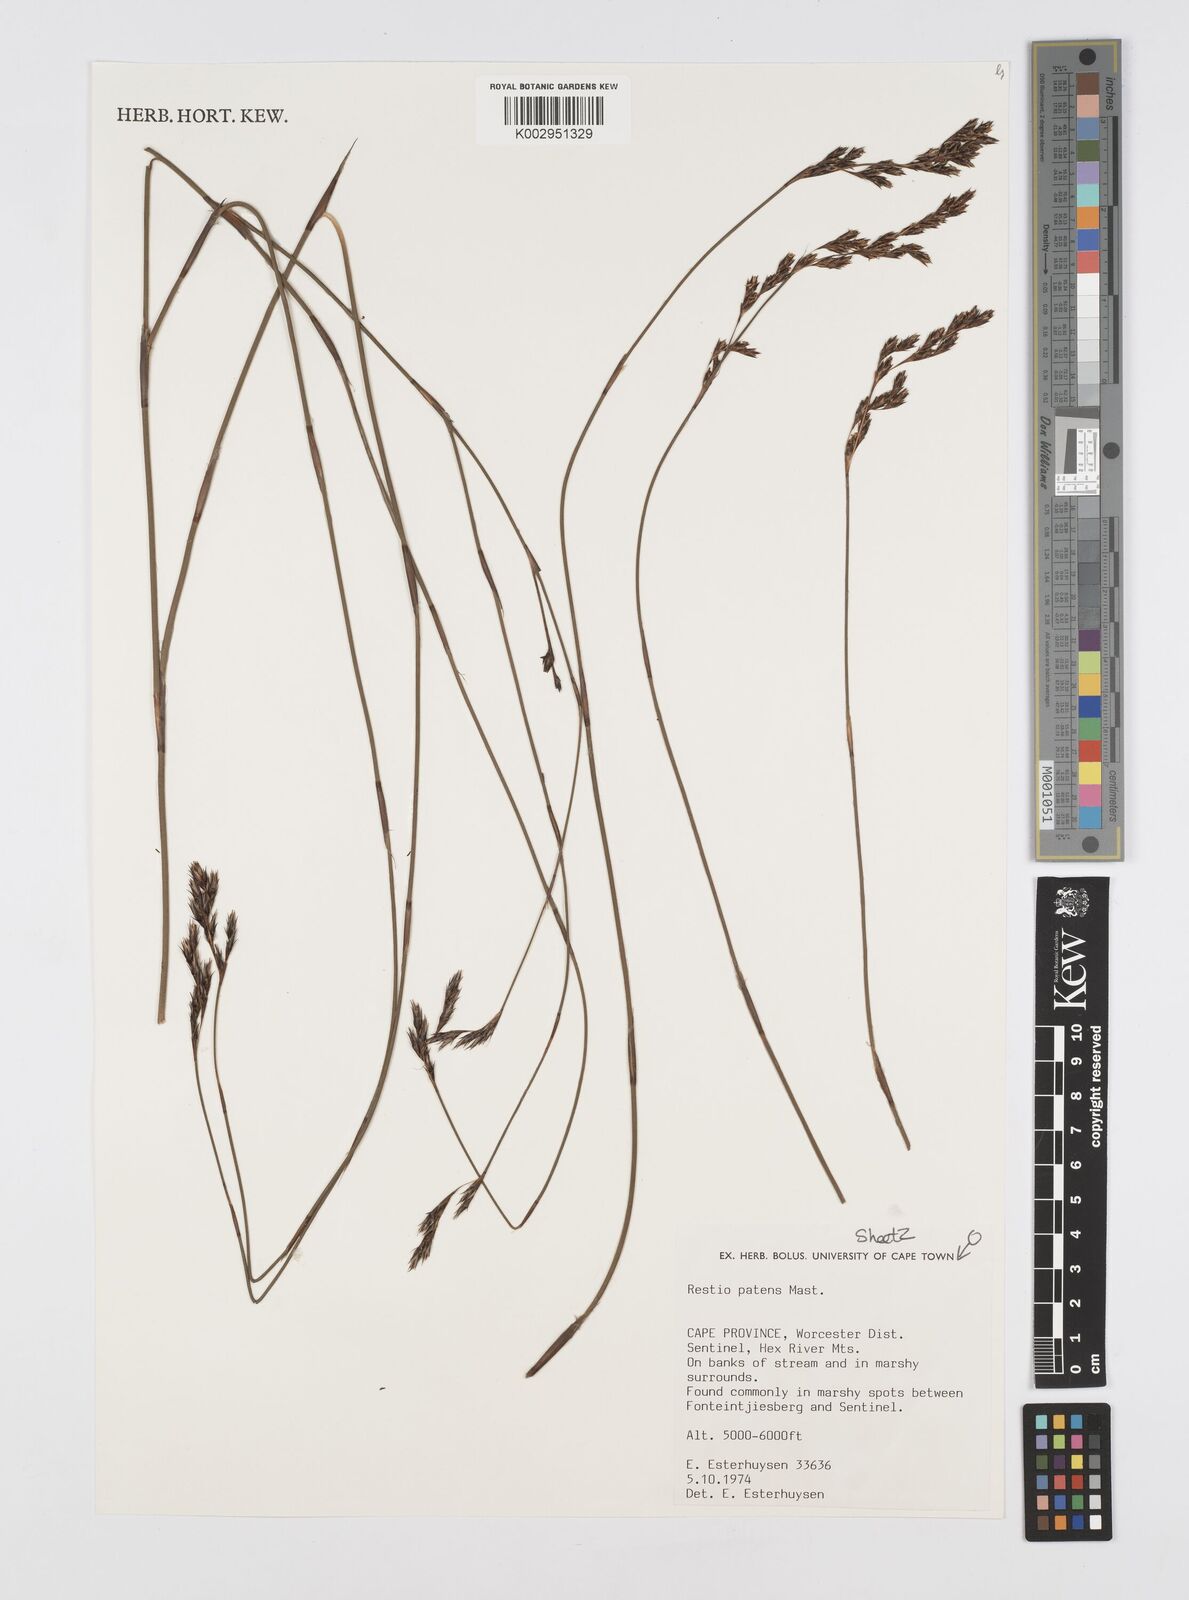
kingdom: Plantae
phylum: Tracheophyta
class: Liliopsida
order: Poales
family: Restionaceae
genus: Restio
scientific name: Restio patens
